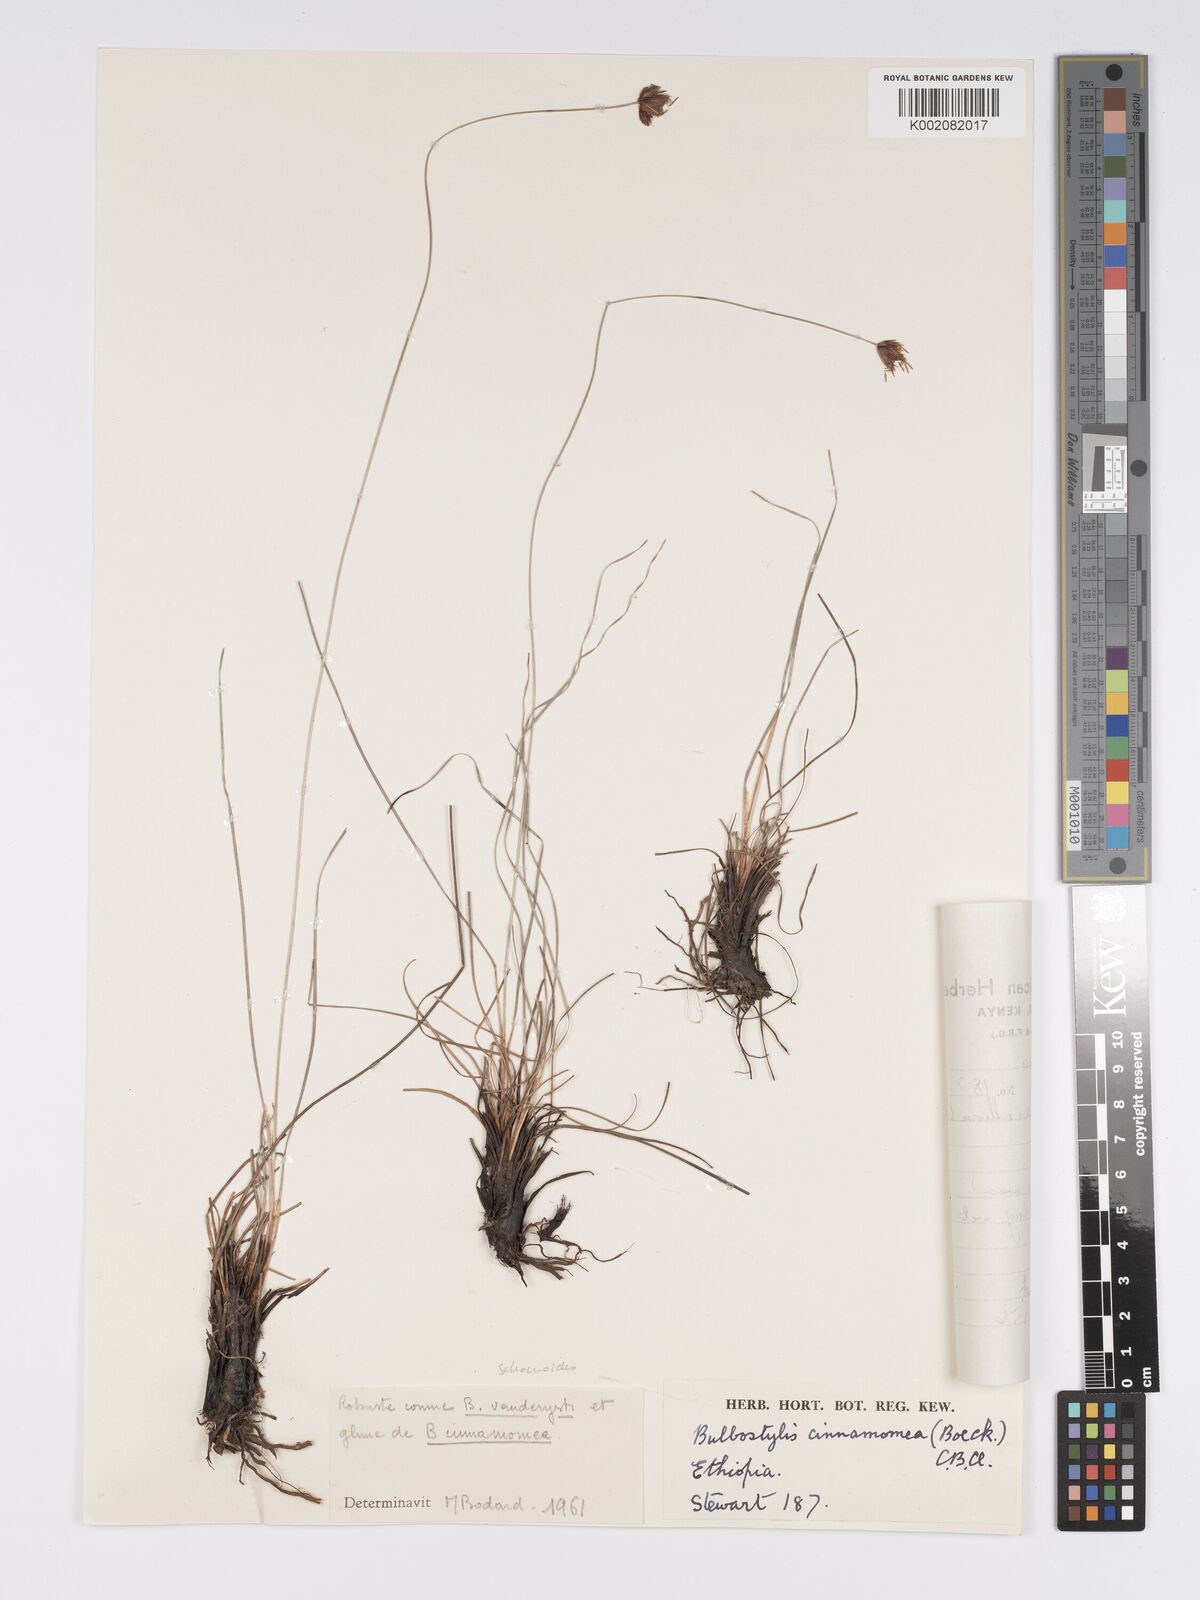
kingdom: Plantae
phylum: Tracheophyta
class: Liliopsida
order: Poales
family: Cyperaceae
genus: Bulbostylis
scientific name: Bulbostylis schoenoides
